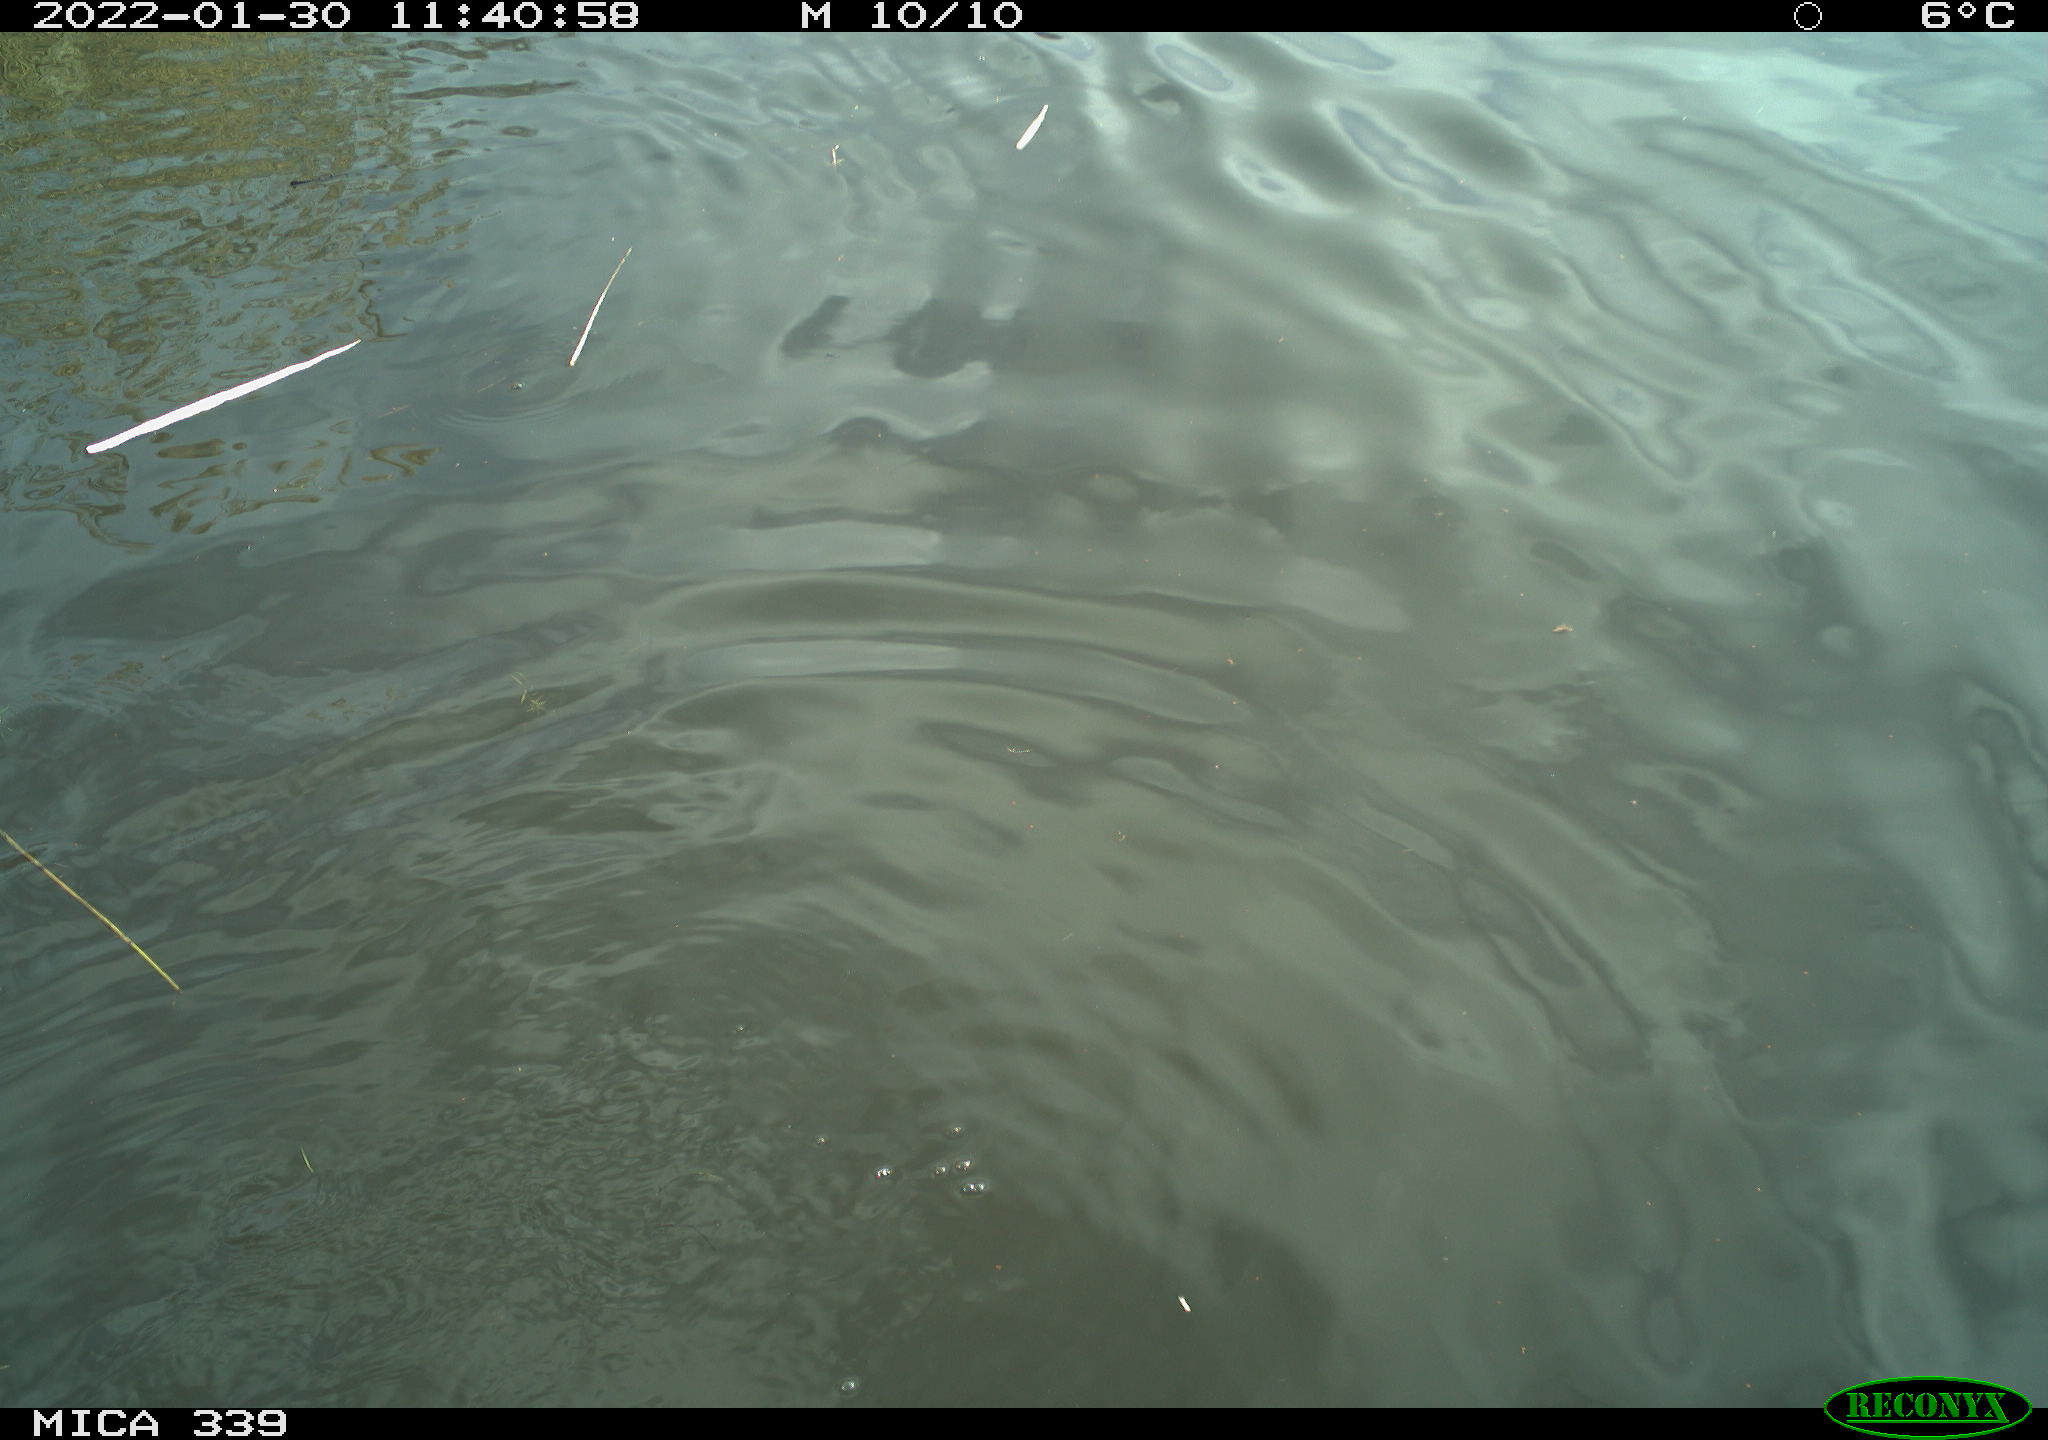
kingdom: Animalia
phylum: Chordata
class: Aves
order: Suliformes
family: Phalacrocoracidae
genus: Phalacrocorax
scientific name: Phalacrocorax carbo
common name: Great cormorant
